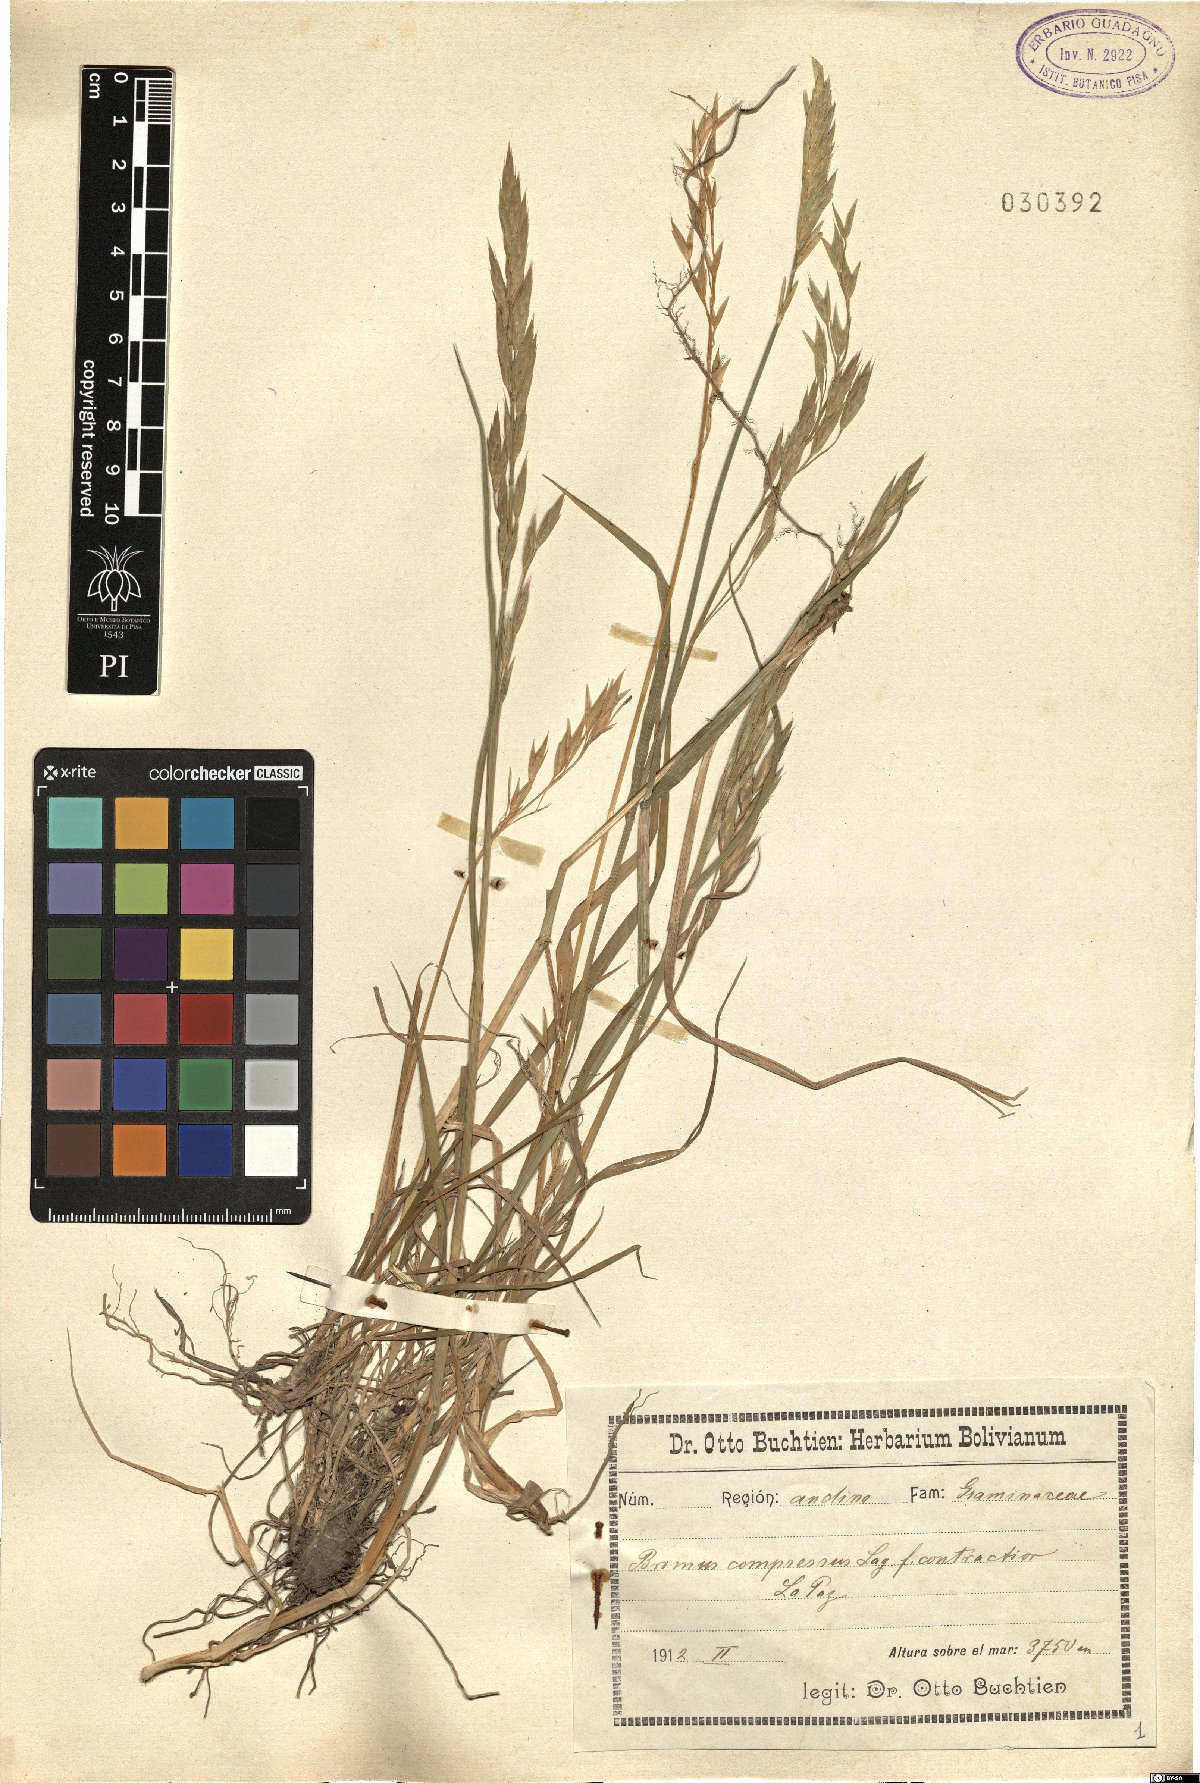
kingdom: Plantae
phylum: Tracheophyta
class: Liliopsida
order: Poales
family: Poaceae
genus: Bromus
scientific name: Bromus carinatus
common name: Mountain brome
